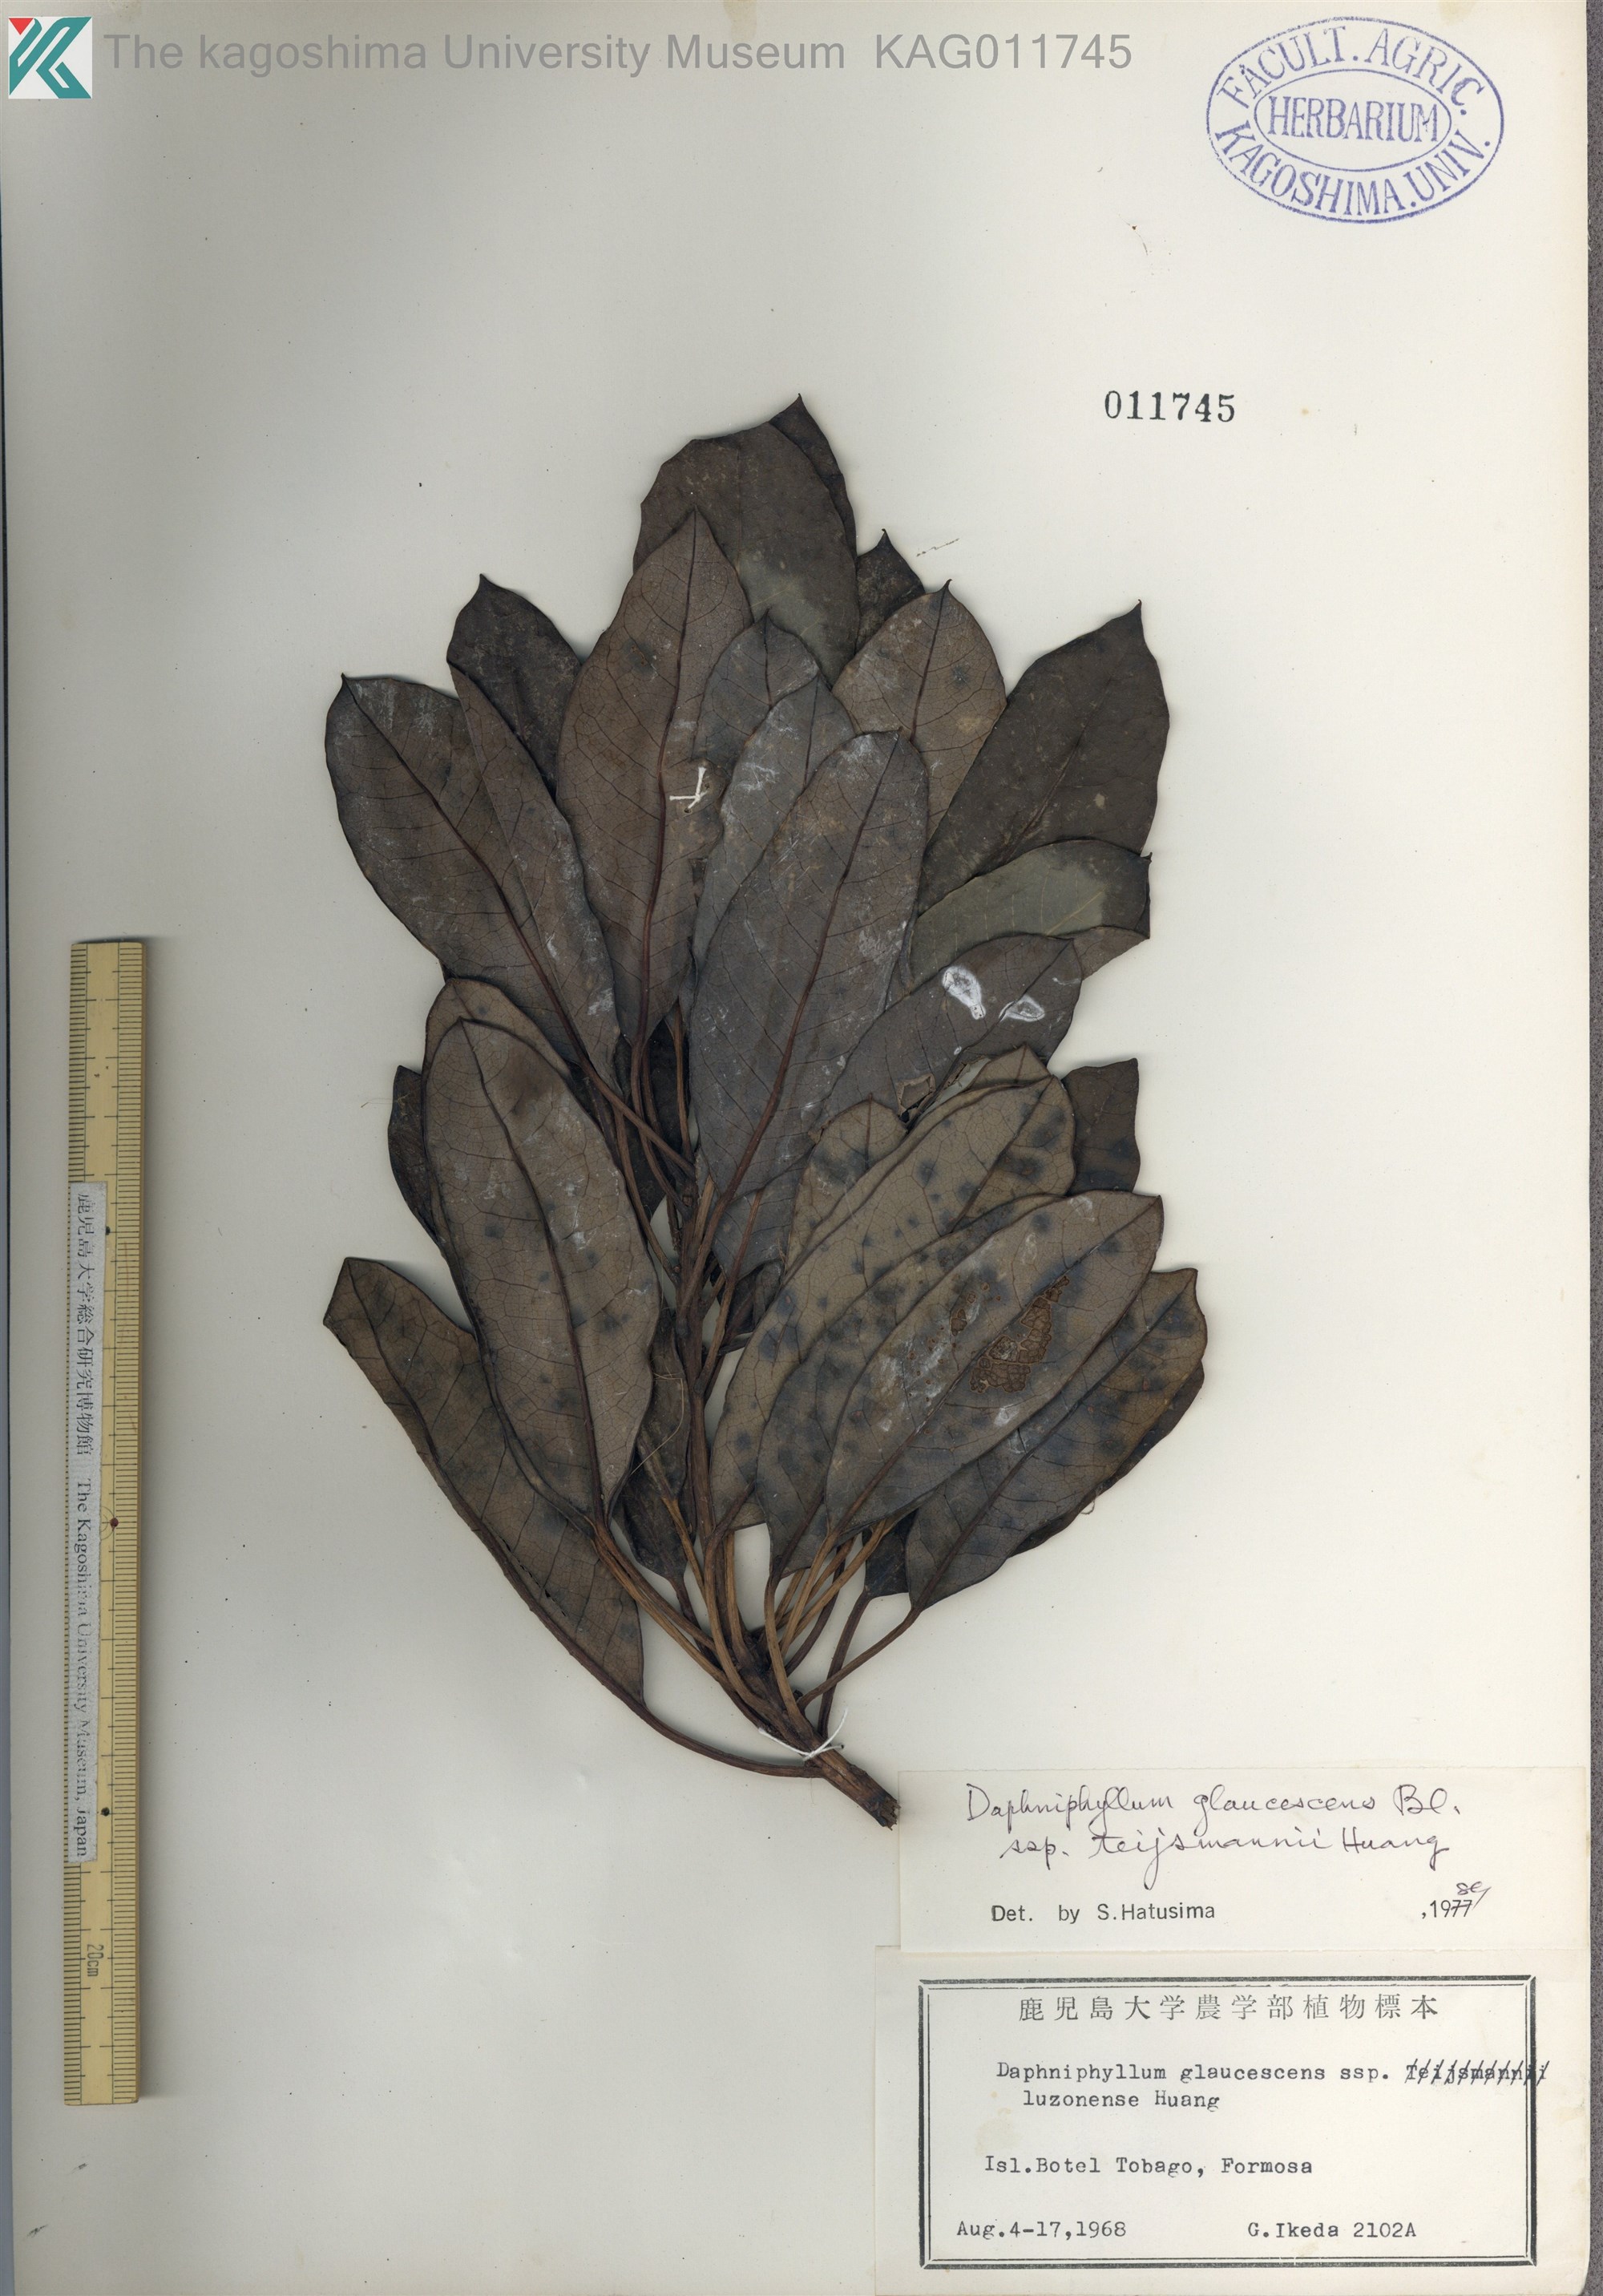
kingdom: Plantae
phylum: Tracheophyta
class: Magnoliopsida
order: Saxifragales
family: Daphniphyllaceae
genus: Daphniphyllum
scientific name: Daphniphyllum teijsmannii
